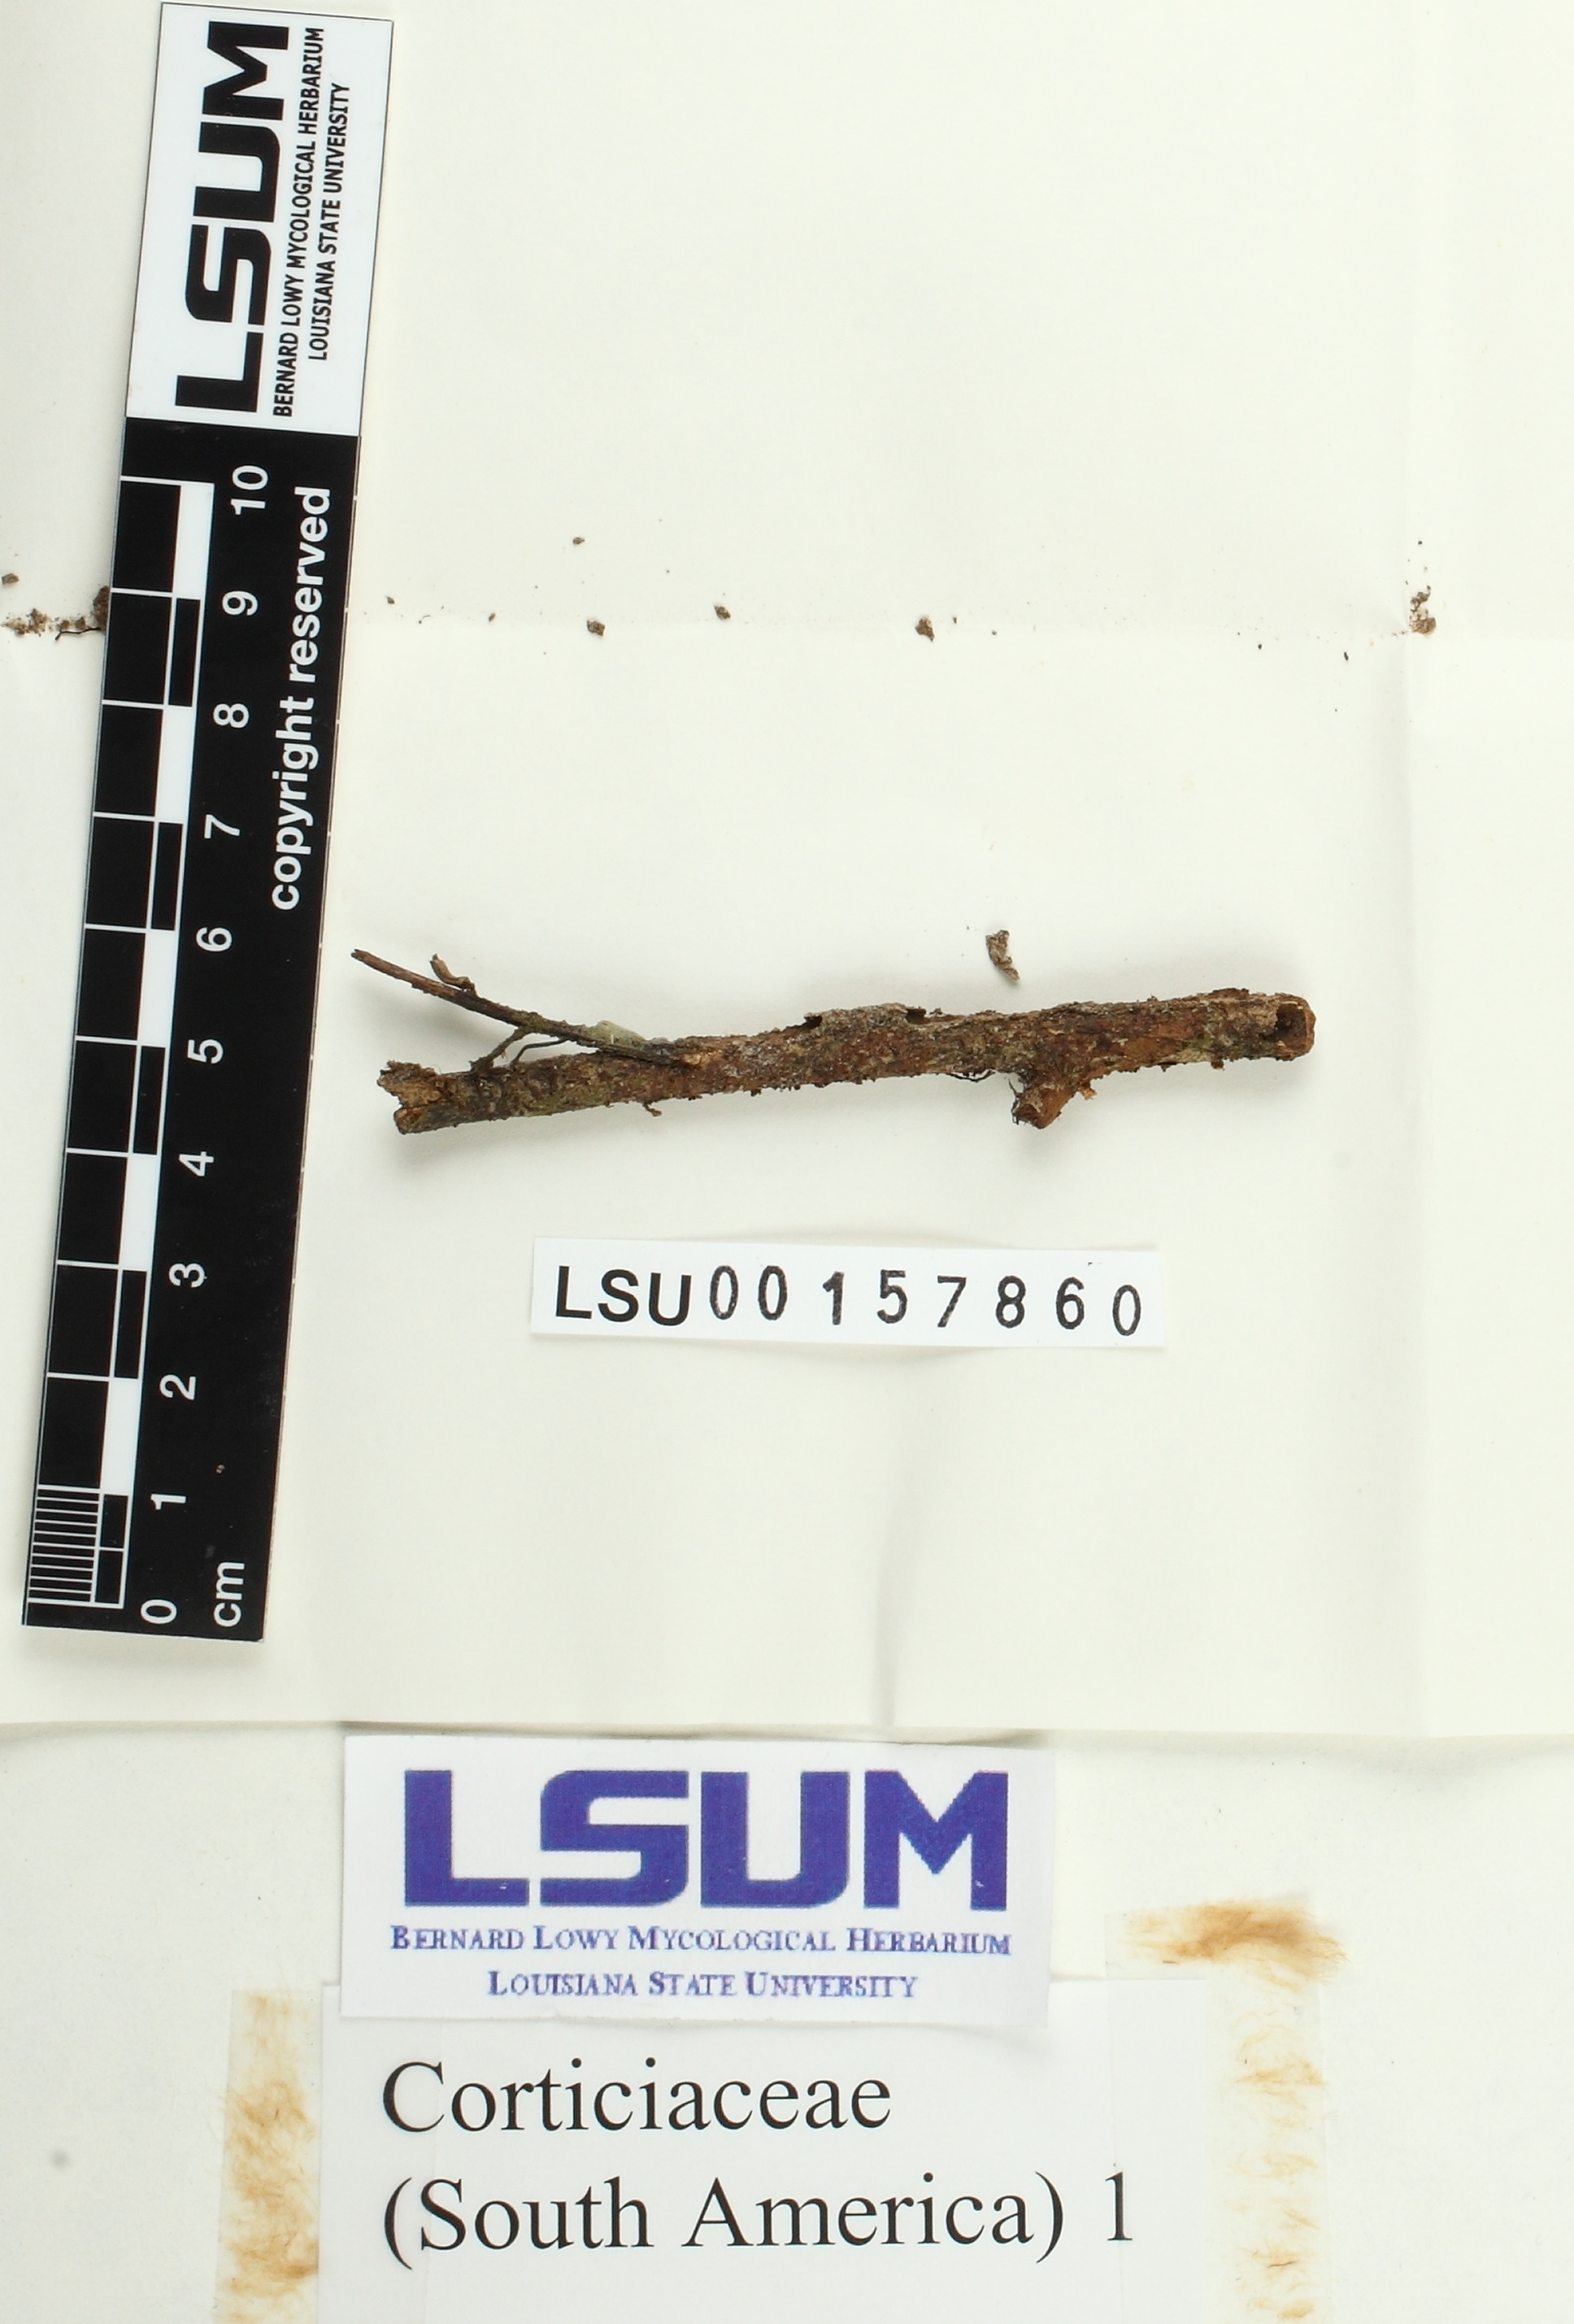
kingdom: Fungi
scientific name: Fungi
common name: Fungi
